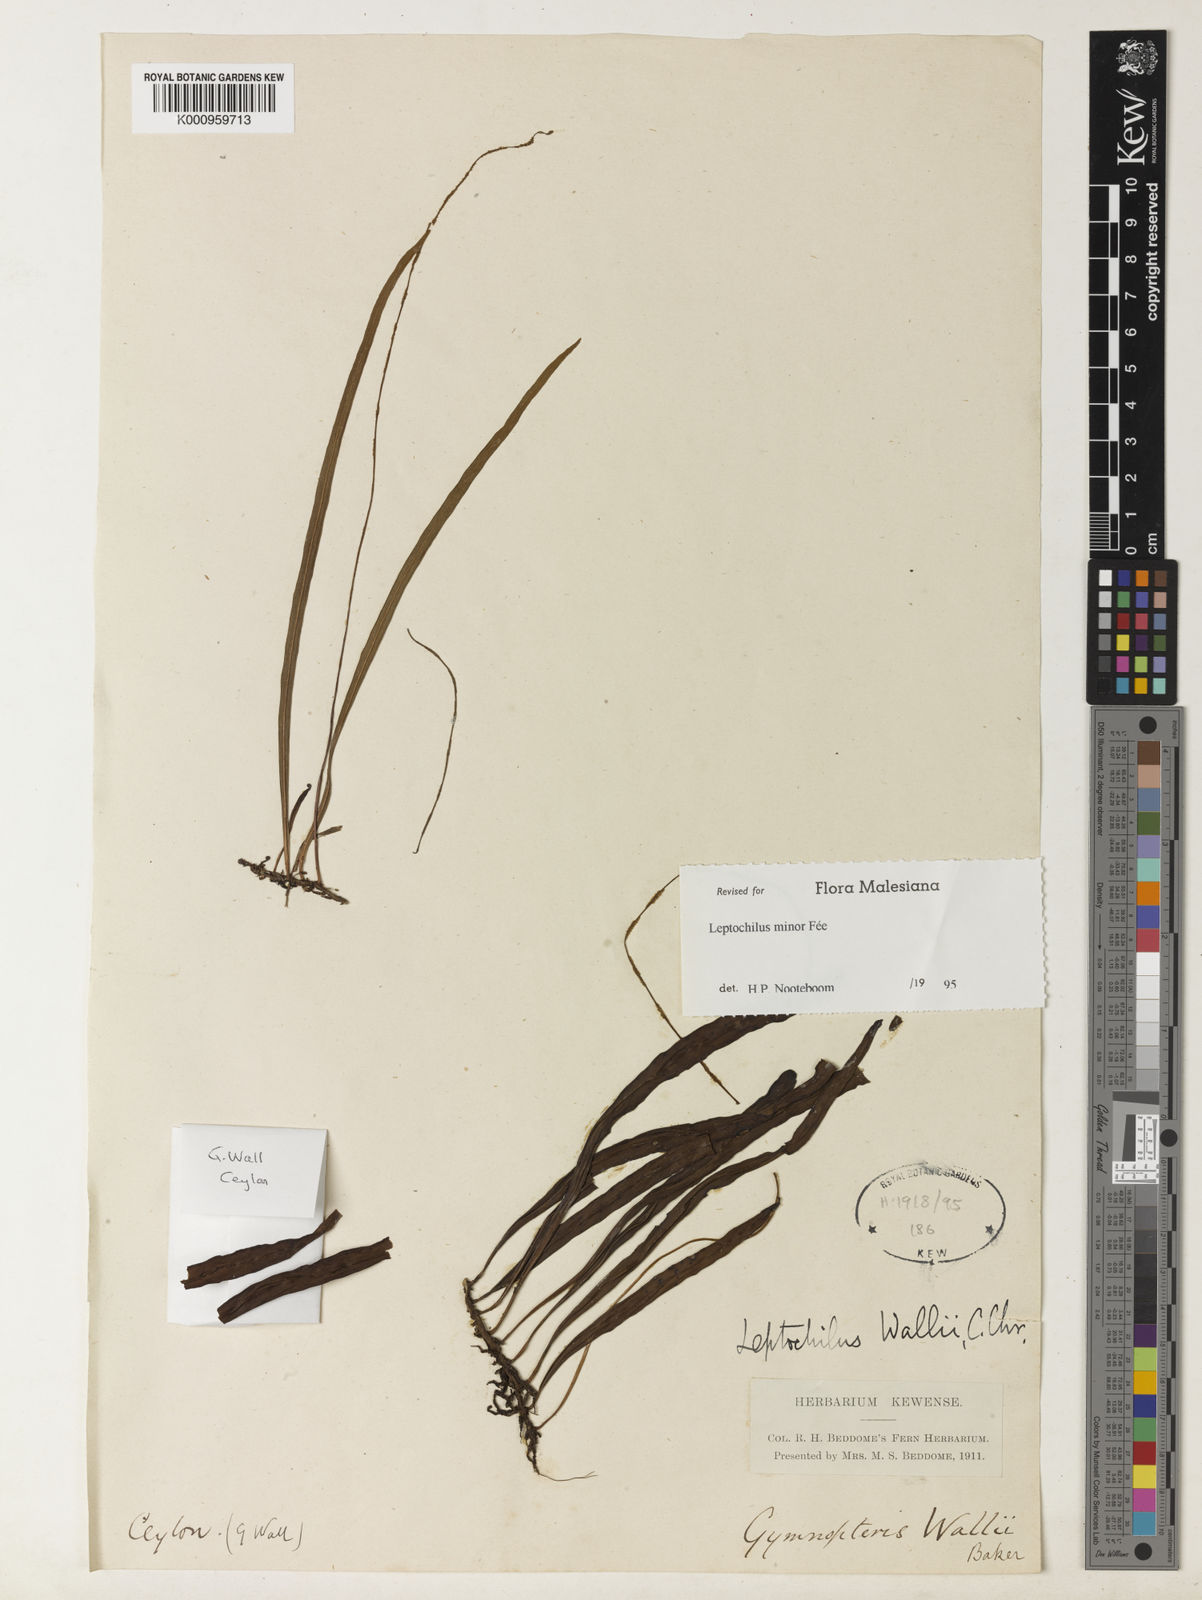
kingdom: Plantae
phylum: Tracheophyta
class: Polypodiopsida
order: Polypodiales
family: Polypodiaceae
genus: Leptochilus
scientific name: Leptochilus decurrens
